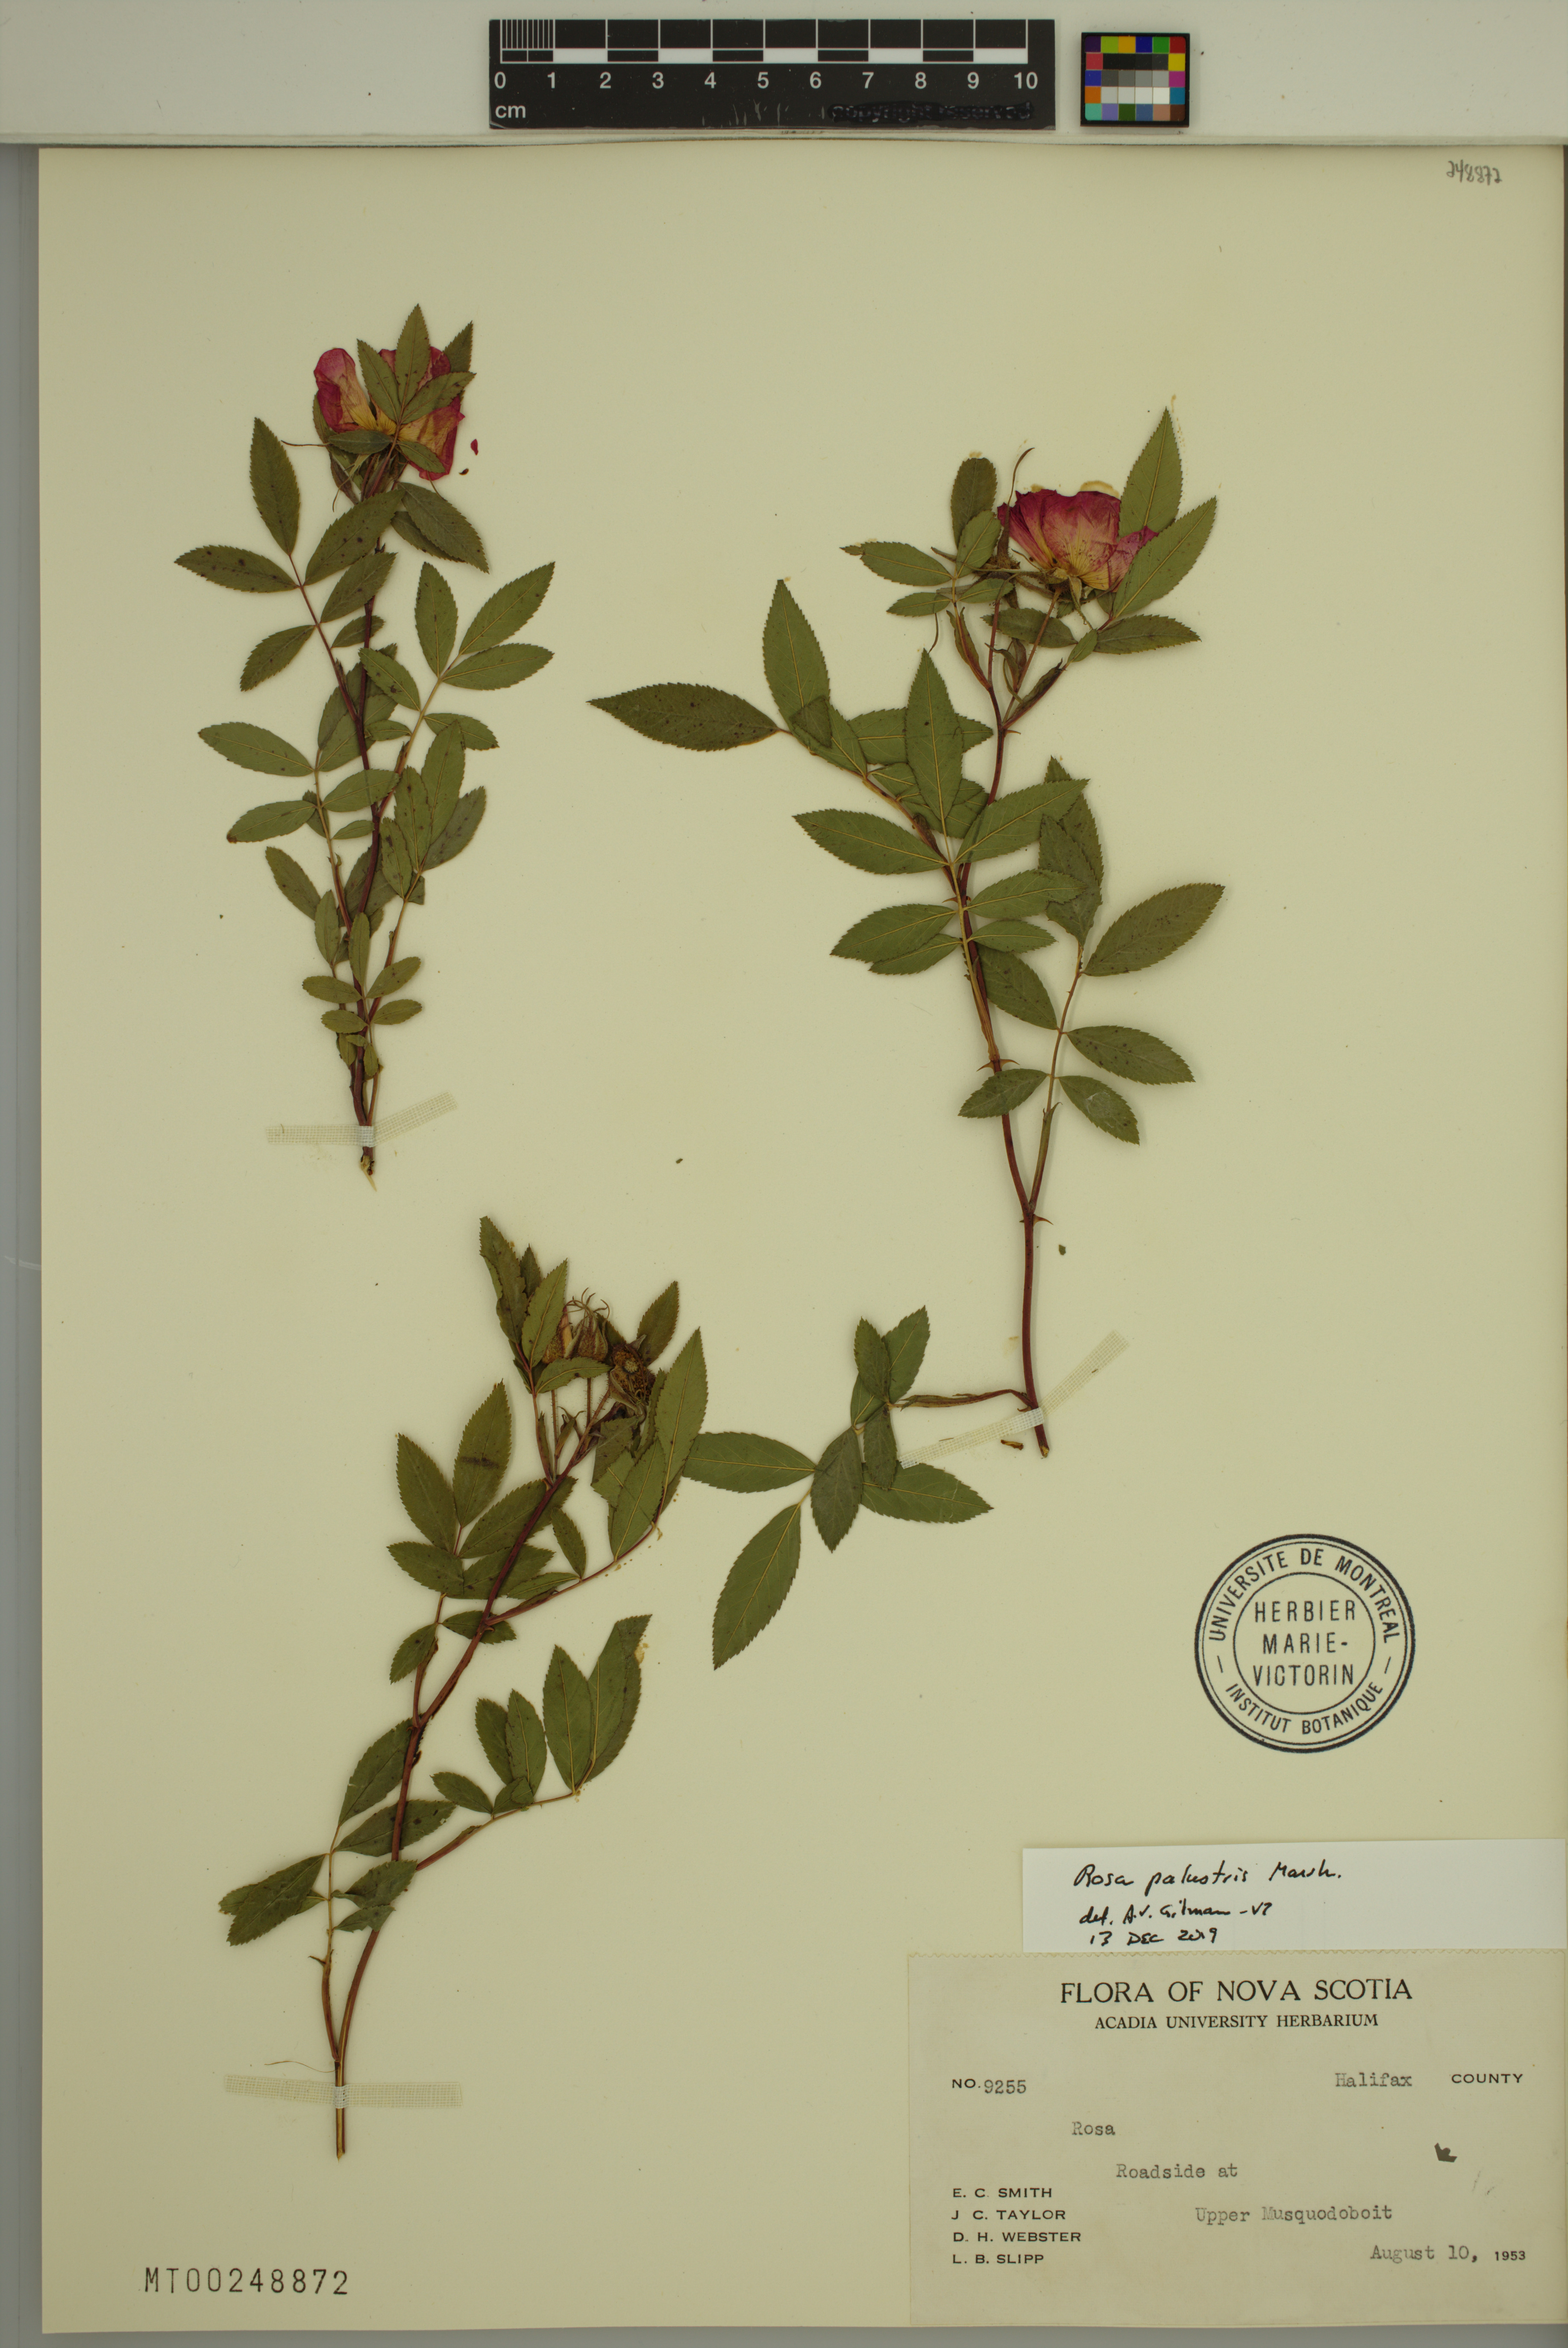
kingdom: Plantae
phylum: Tracheophyta
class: Magnoliopsida
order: Rosales
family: Rosaceae
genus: Rosa
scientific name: Rosa palustris
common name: Swamp rose
